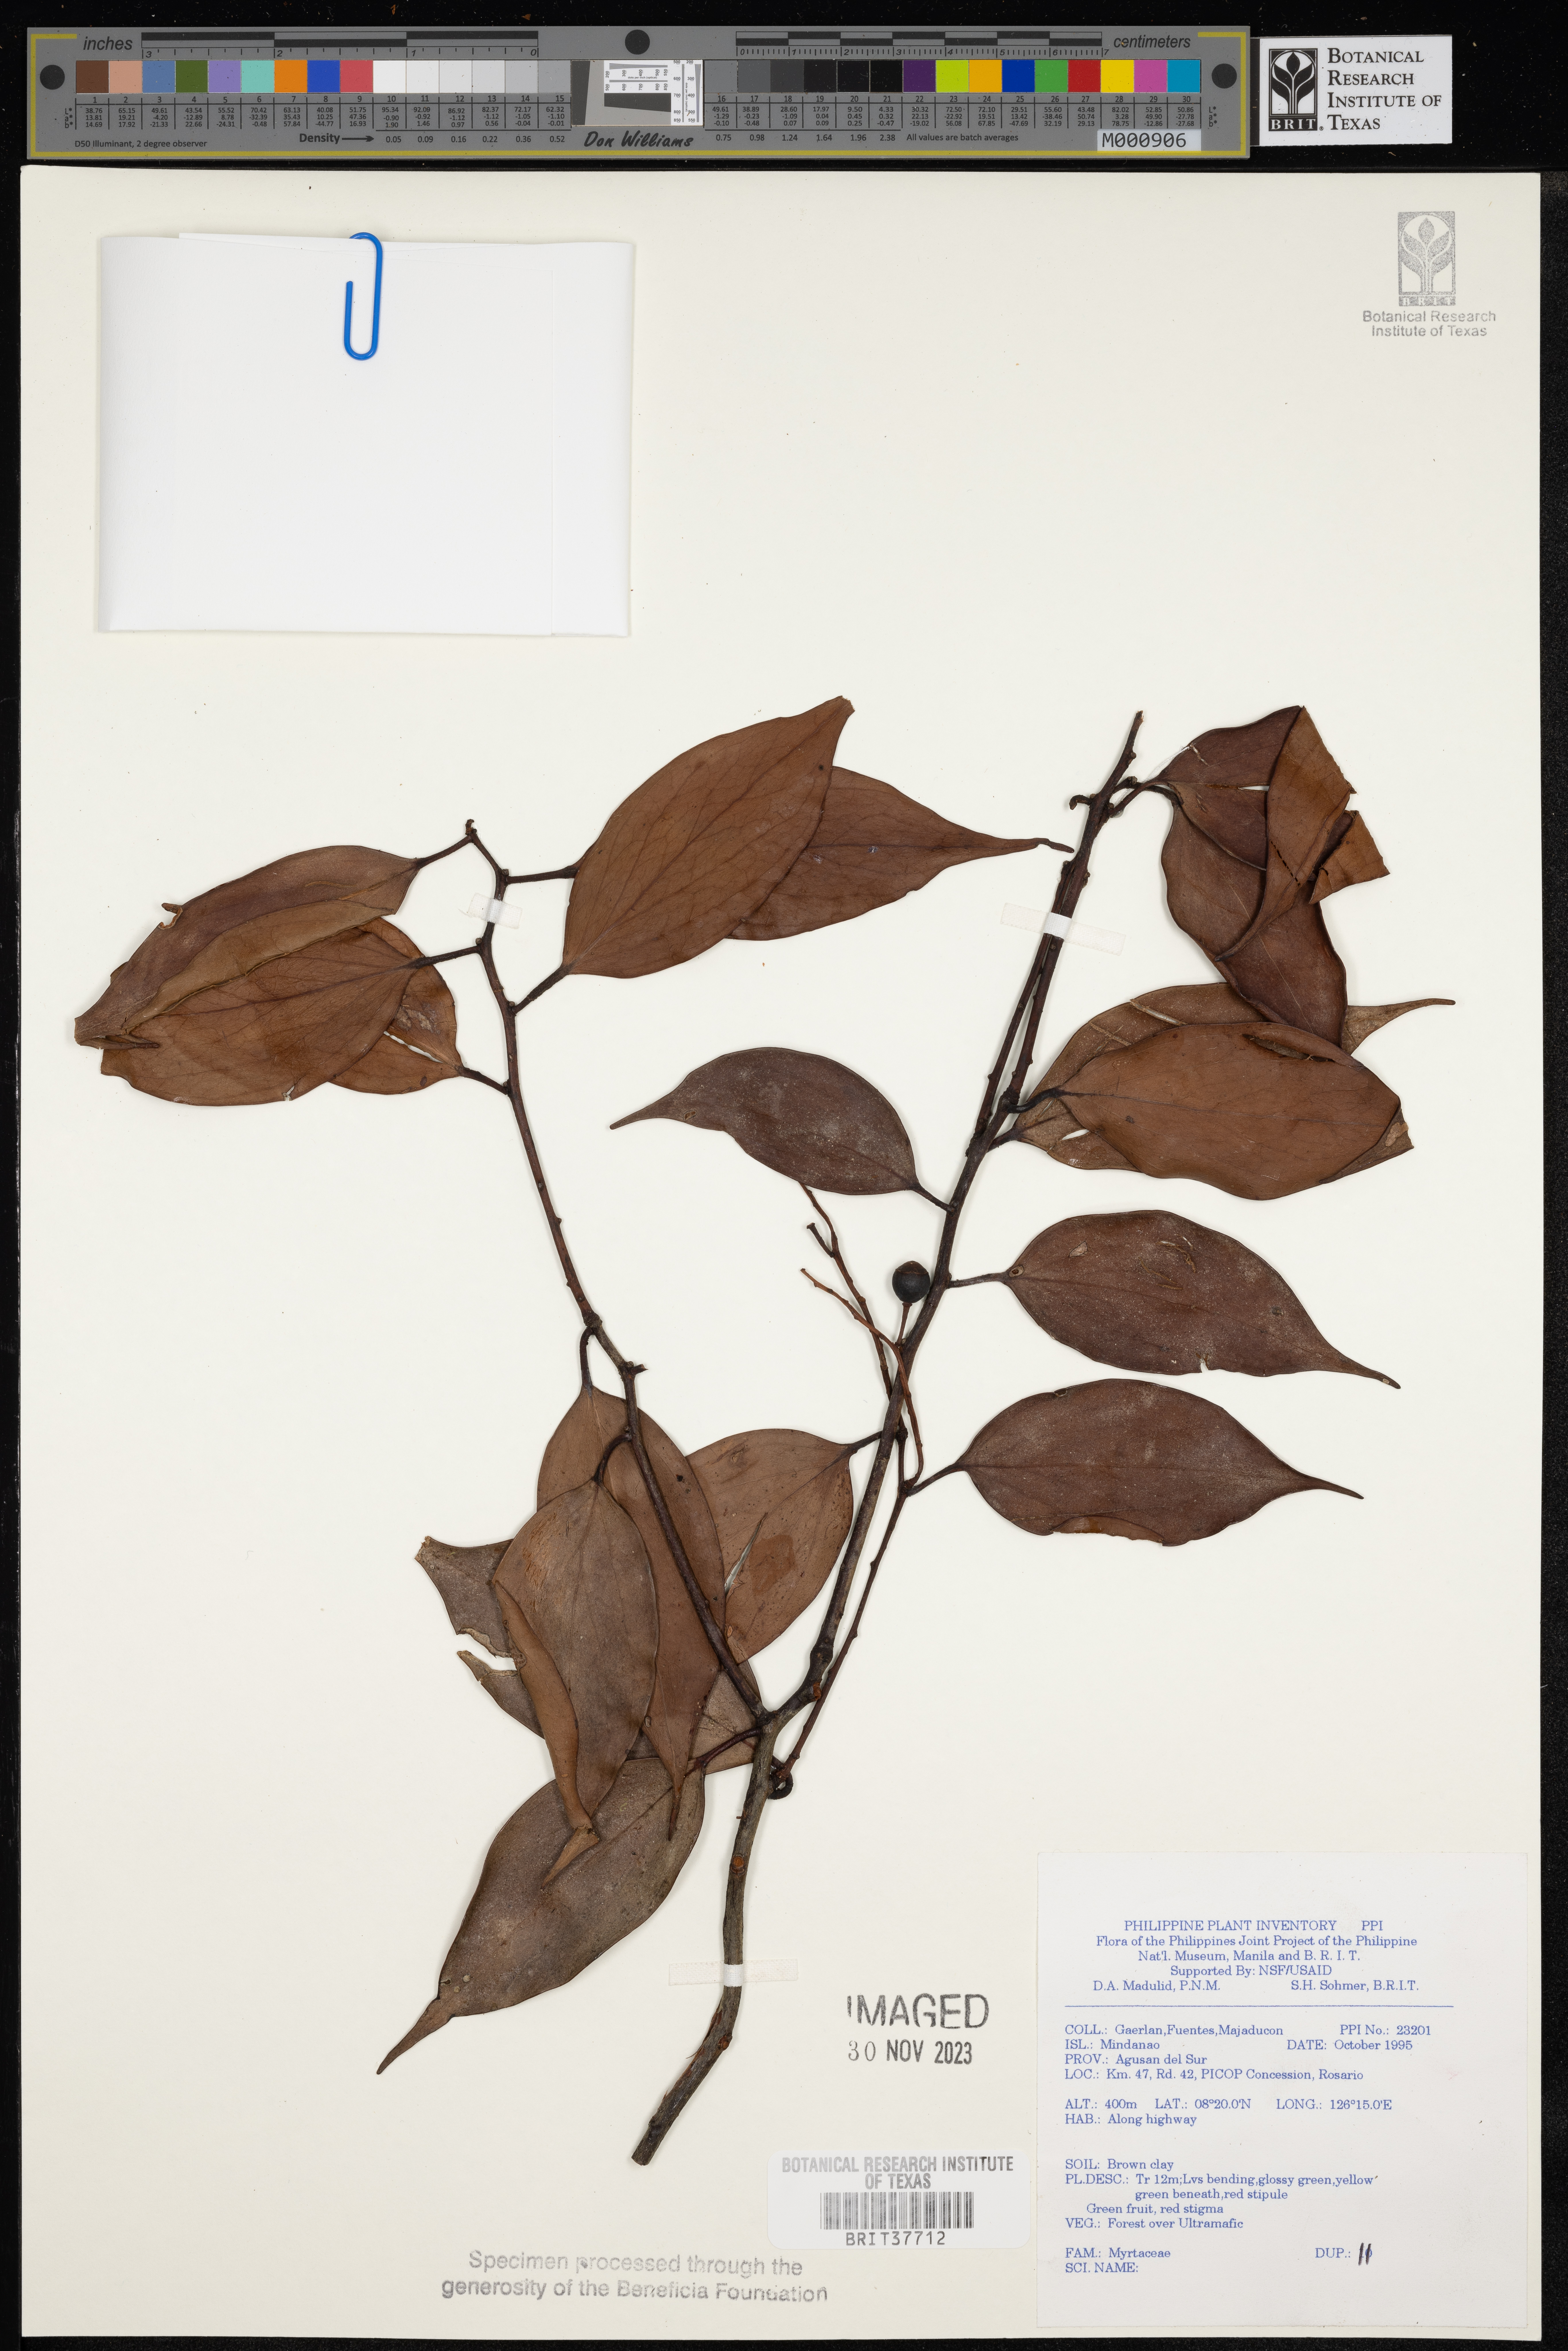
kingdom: Plantae
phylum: Tracheophyta
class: Magnoliopsida
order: Myrtales
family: Myrtaceae
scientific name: Myrtaceae
